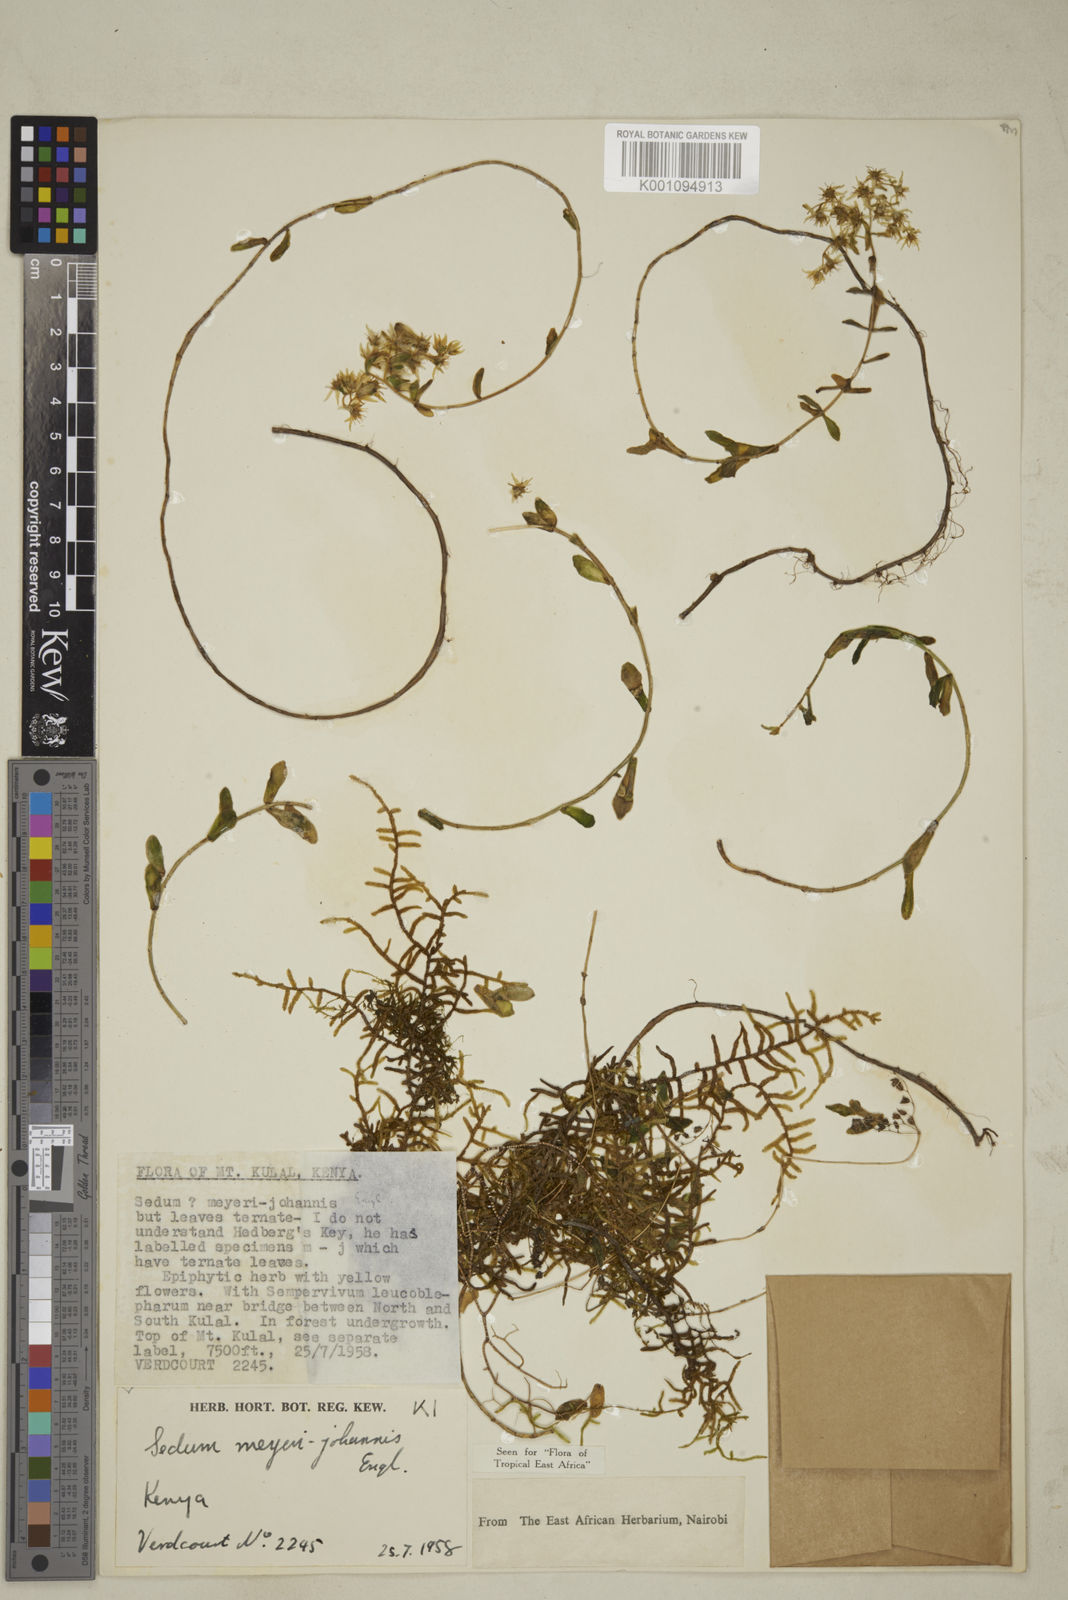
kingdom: Plantae
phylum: Tracheophyta
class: Magnoliopsida
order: Saxifragales
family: Crassulaceae
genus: Sedum
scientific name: Sedum meyeri-johannis
